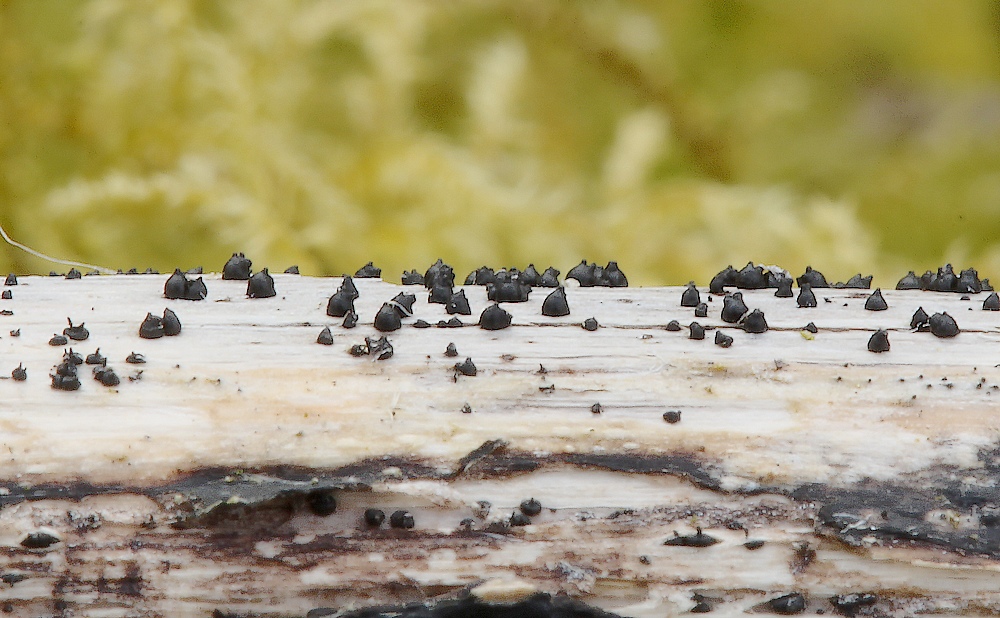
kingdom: Fungi
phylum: Ascomycota
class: Dothideomycetes
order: Pleosporales
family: Leptosphaeriaceae
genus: Leptosphaeria
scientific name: Leptosphaeria acuta
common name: spids kulkegle
